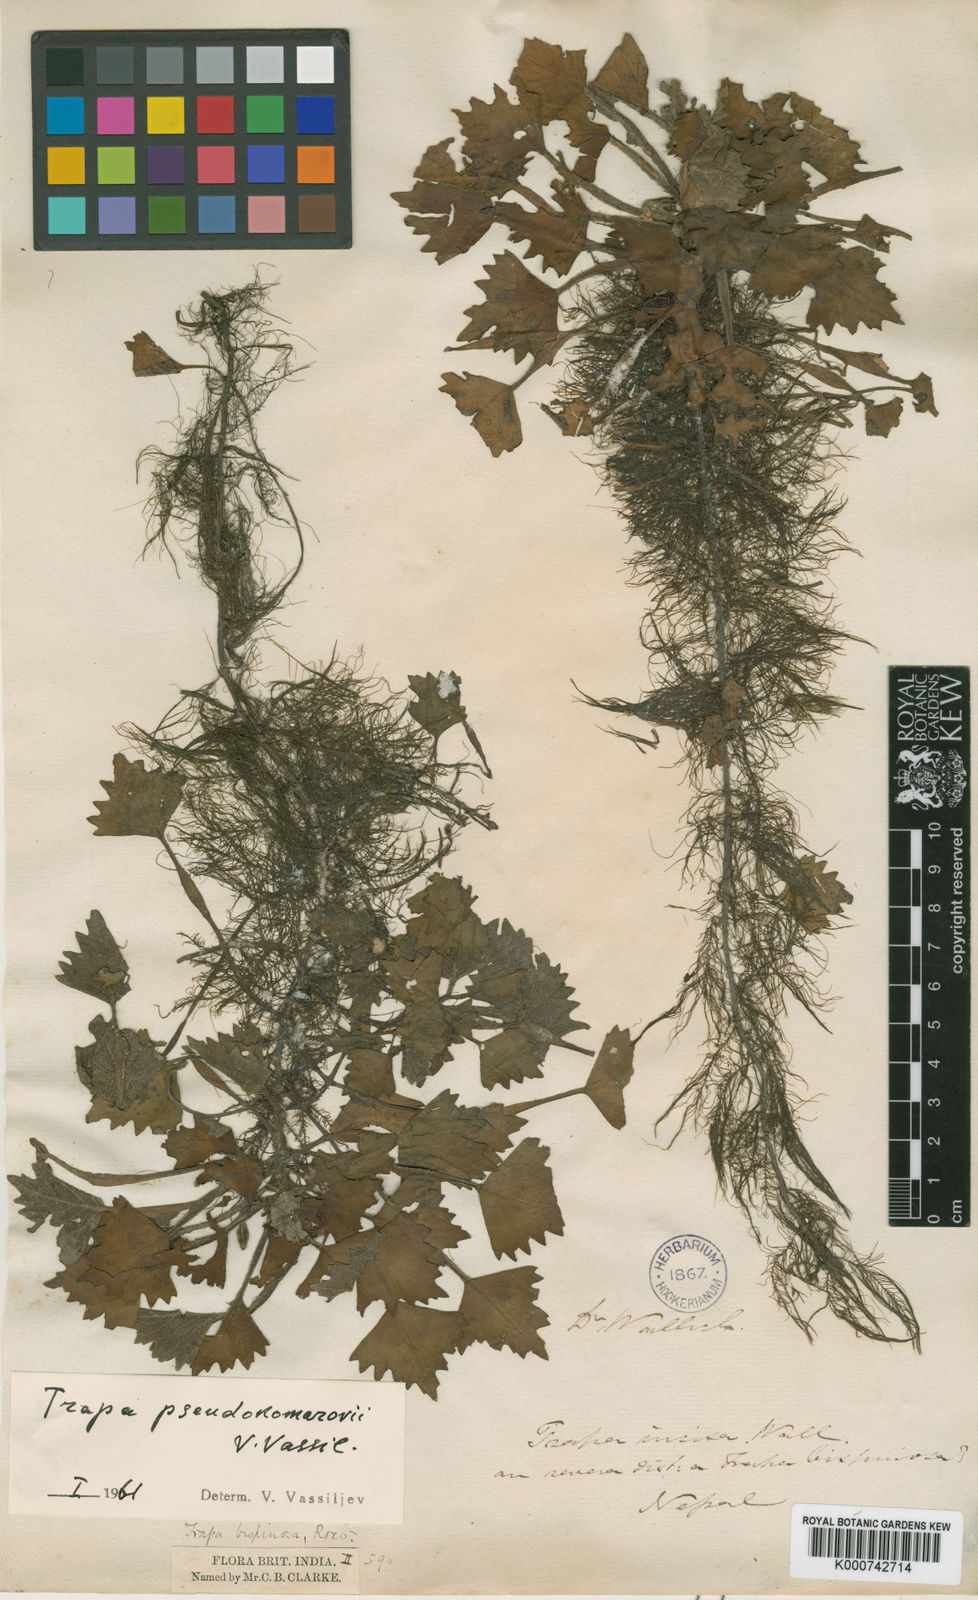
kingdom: Plantae
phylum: Tracheophyta
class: Magnoliopsida
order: Myrtales
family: Lythraceae
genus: Trapa
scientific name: Trapa natans
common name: Water chestnut
